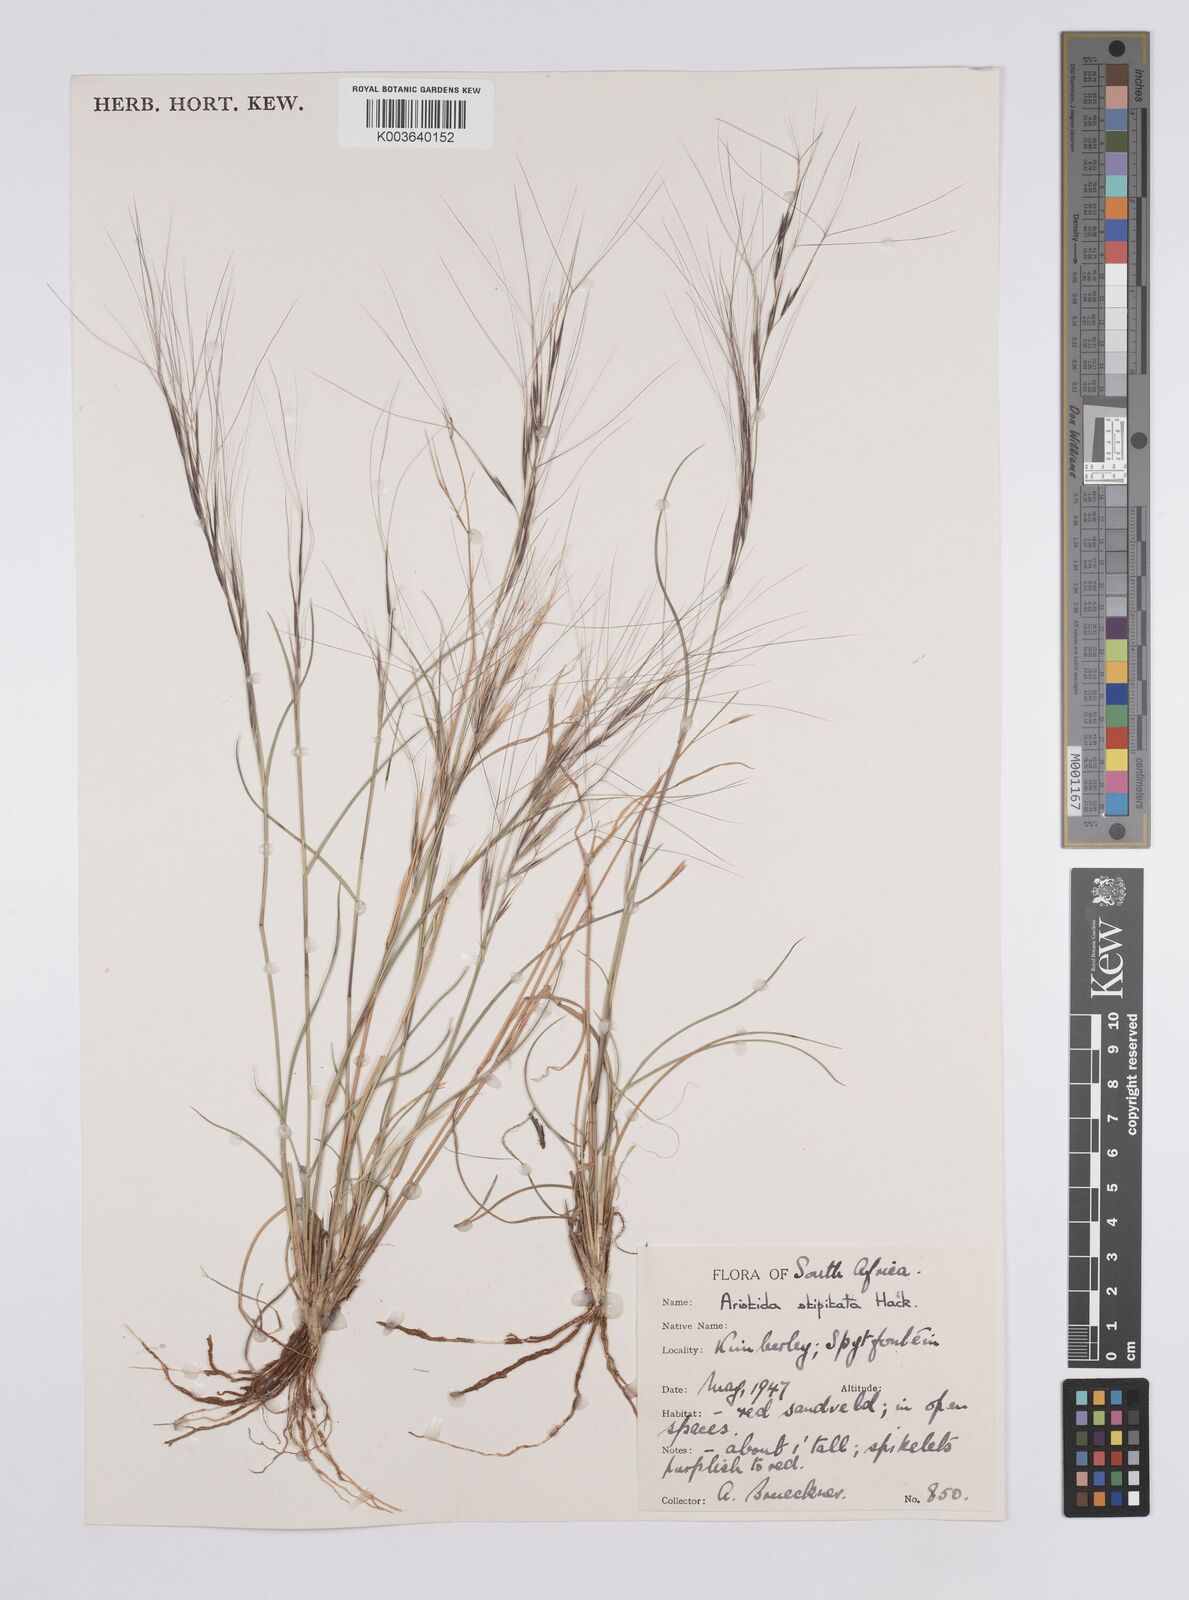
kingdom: Plantae
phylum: Tracheophyta
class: Liliopsida
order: Poales
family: Poaceae
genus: Aristida
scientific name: Aristida stipitata
